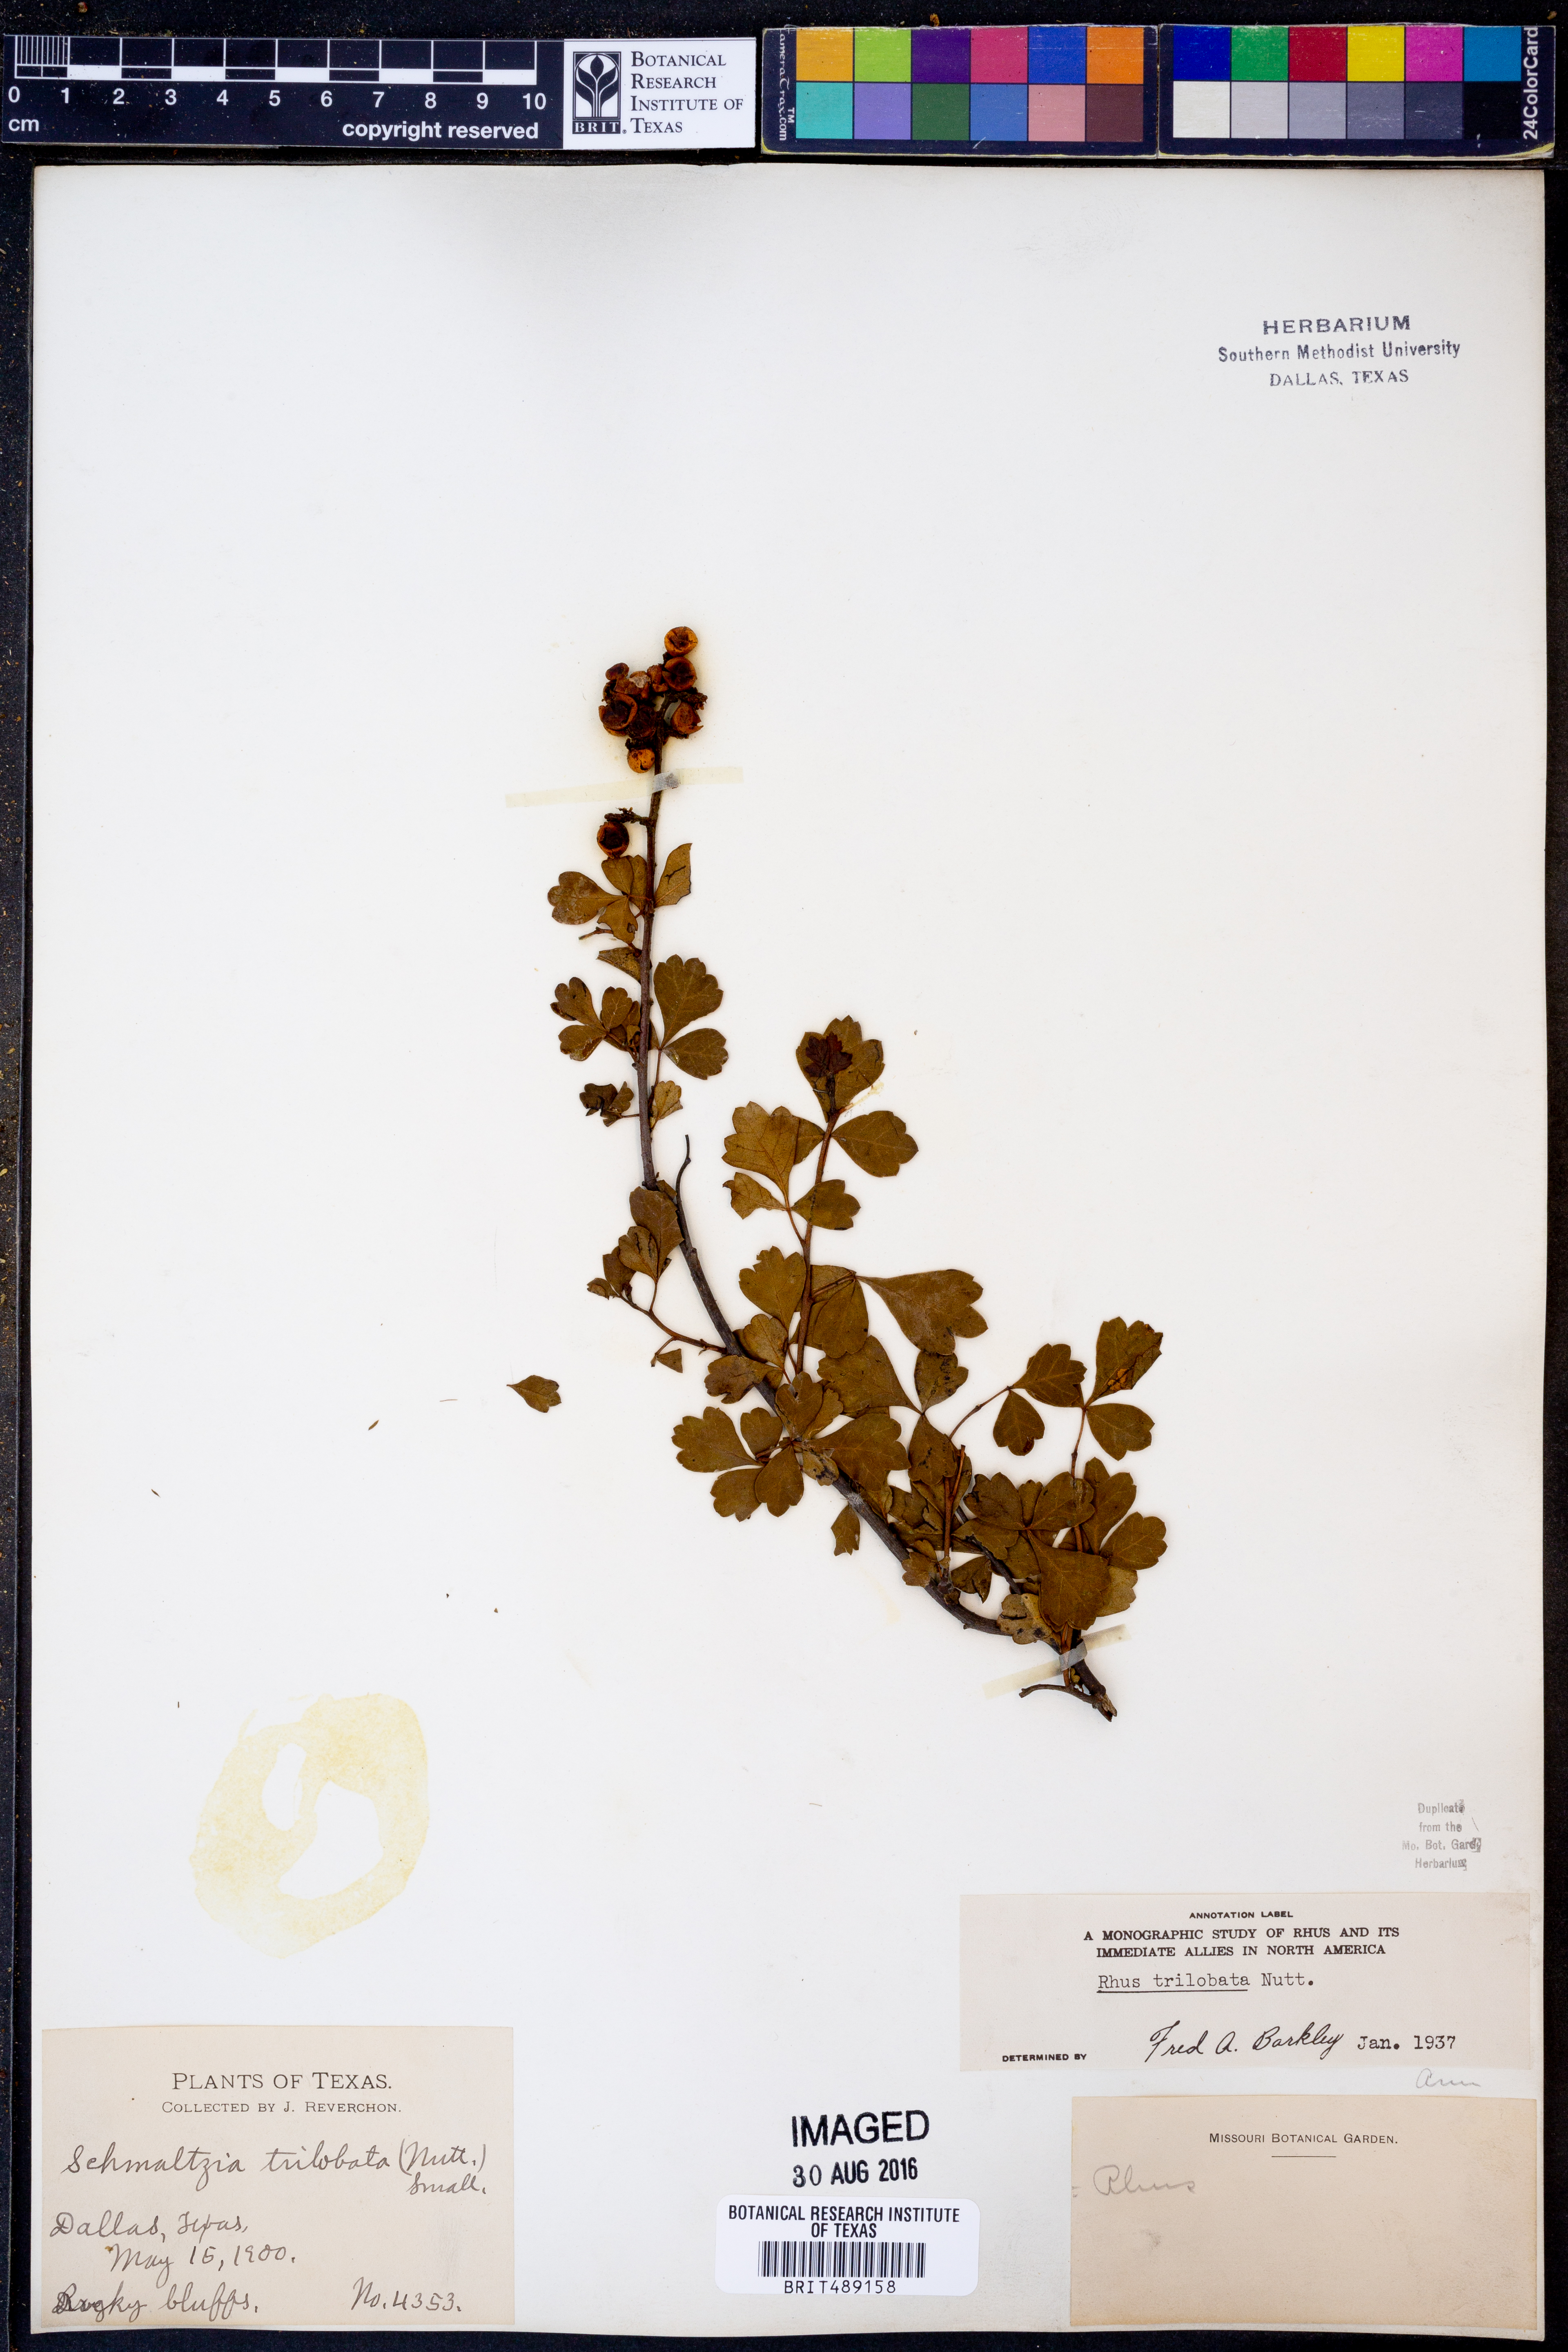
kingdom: Plantae
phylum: Tracheophyta
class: Magnoliopsida
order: Sapindales
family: Anacardiaceae
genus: Rhus
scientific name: Rhus trilobata
